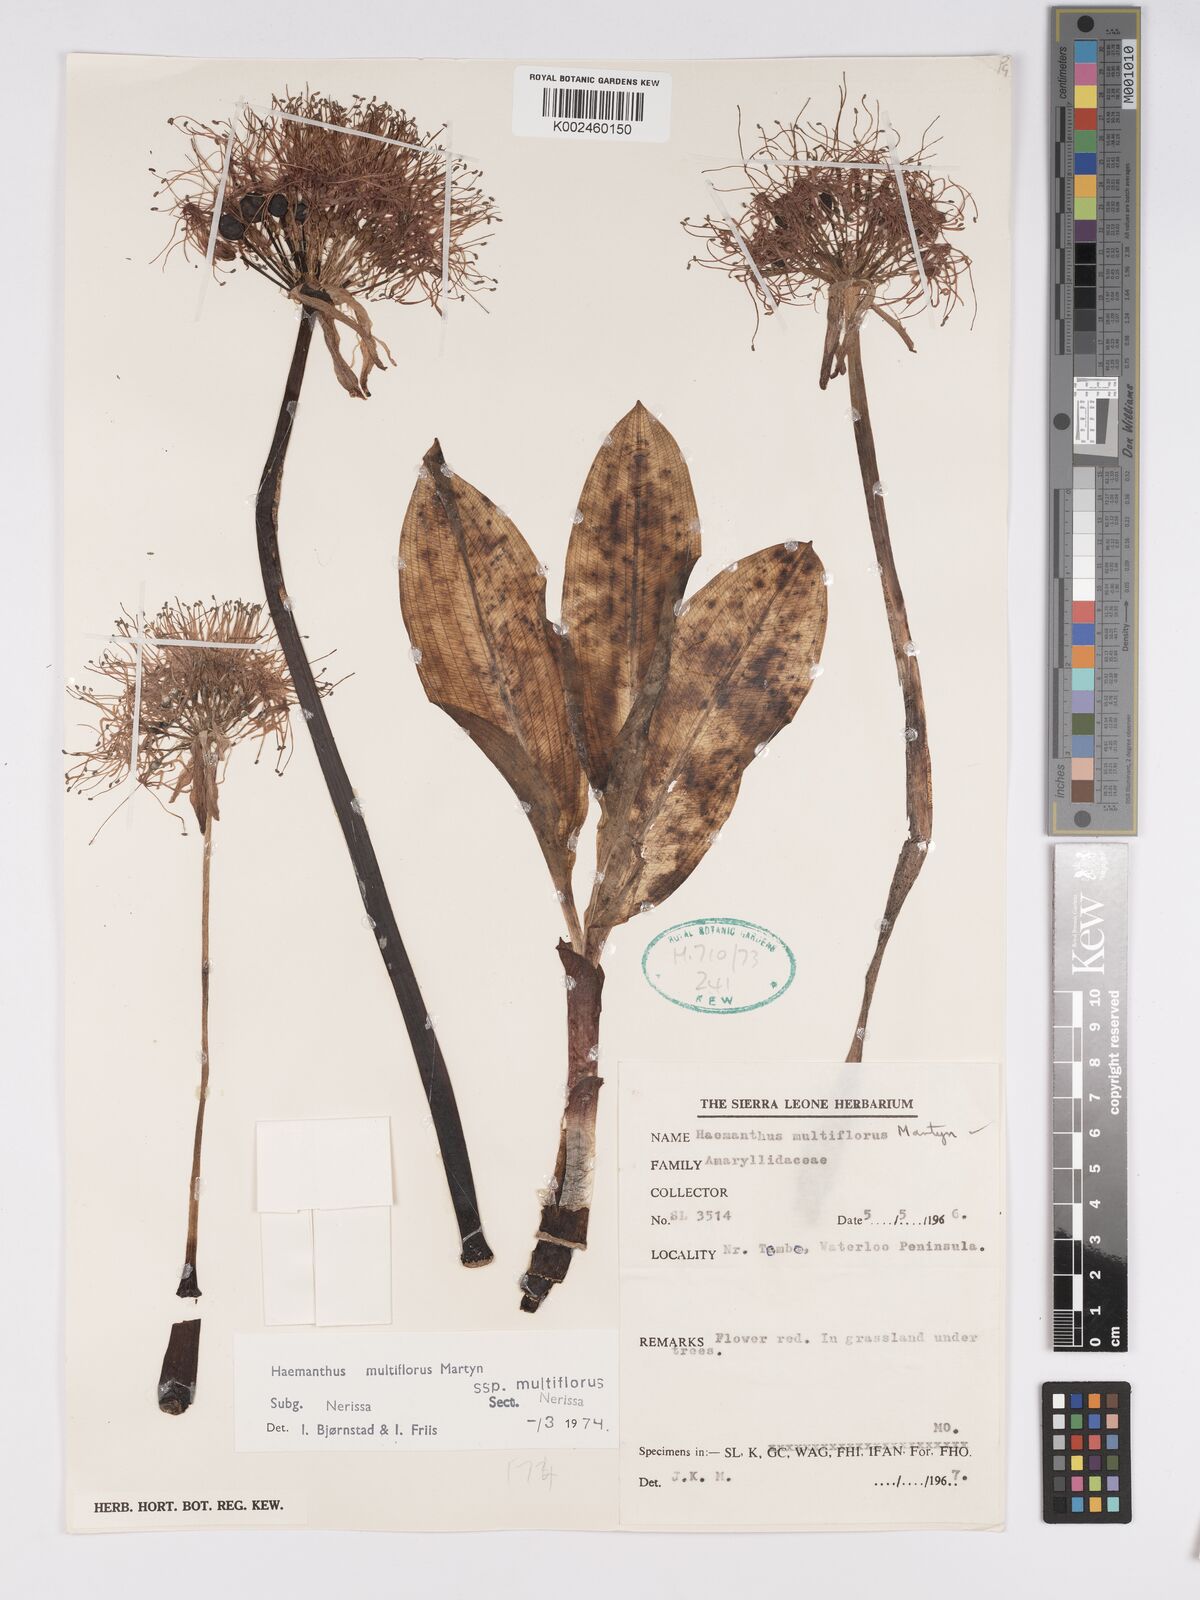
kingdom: Plantae
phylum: Tracheophyta
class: Liliopsida
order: Asparagales
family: Amaryllidaceae
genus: Scadoxus
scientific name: Scadoxus multiflorus
